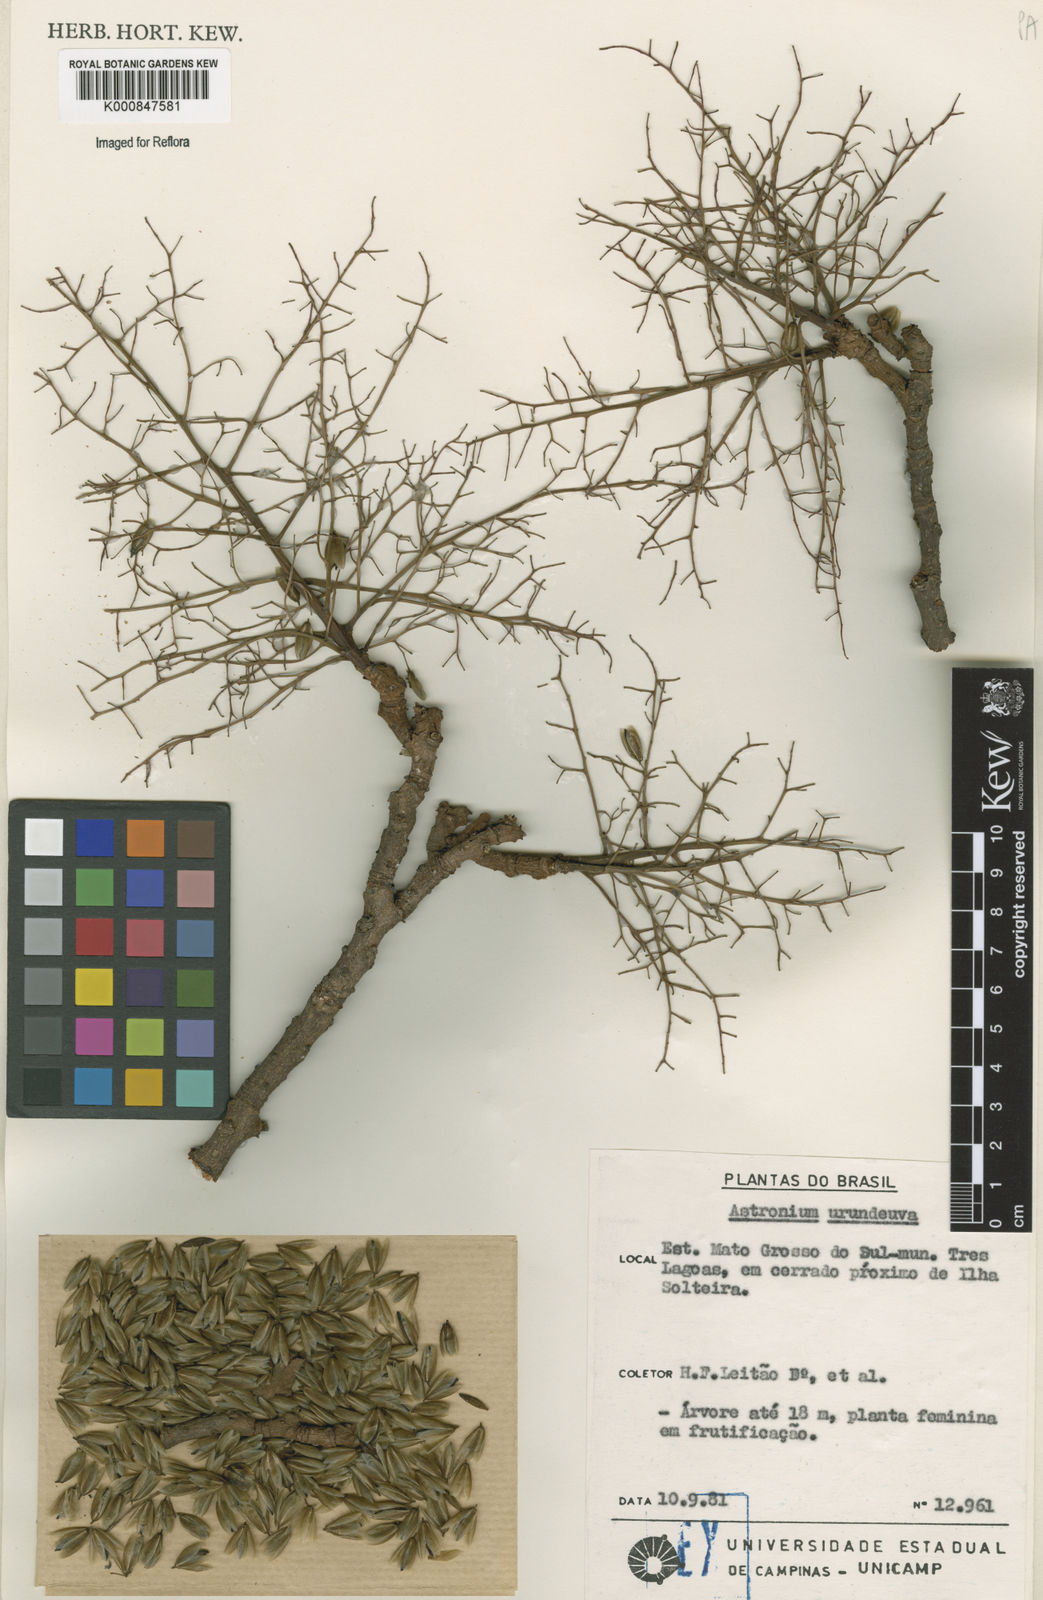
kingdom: Plantae
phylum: Tracheophyta
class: Magnoliopsida
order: Sapindales
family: Anacardiaceae
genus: Astronium
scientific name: Astronium
